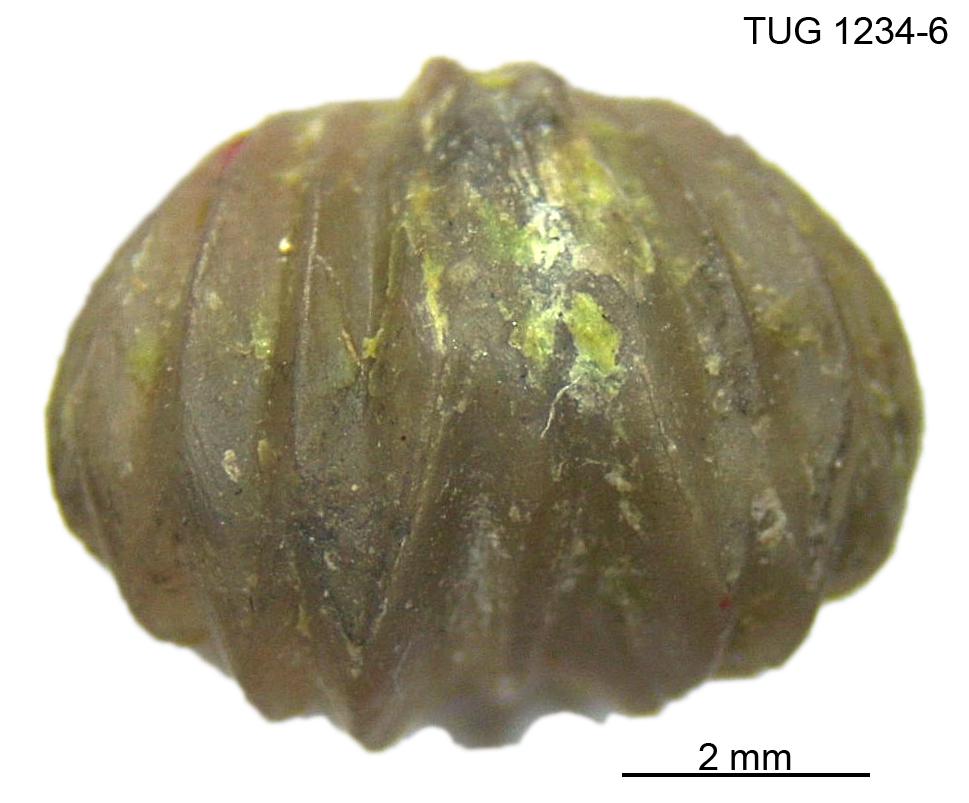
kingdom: Animalia
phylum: Brachiopoda
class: Rhynchonellata
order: Rhynchonellida
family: Rhynchotrematidae
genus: Rhynchotrema
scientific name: Rhynchotrema parva
